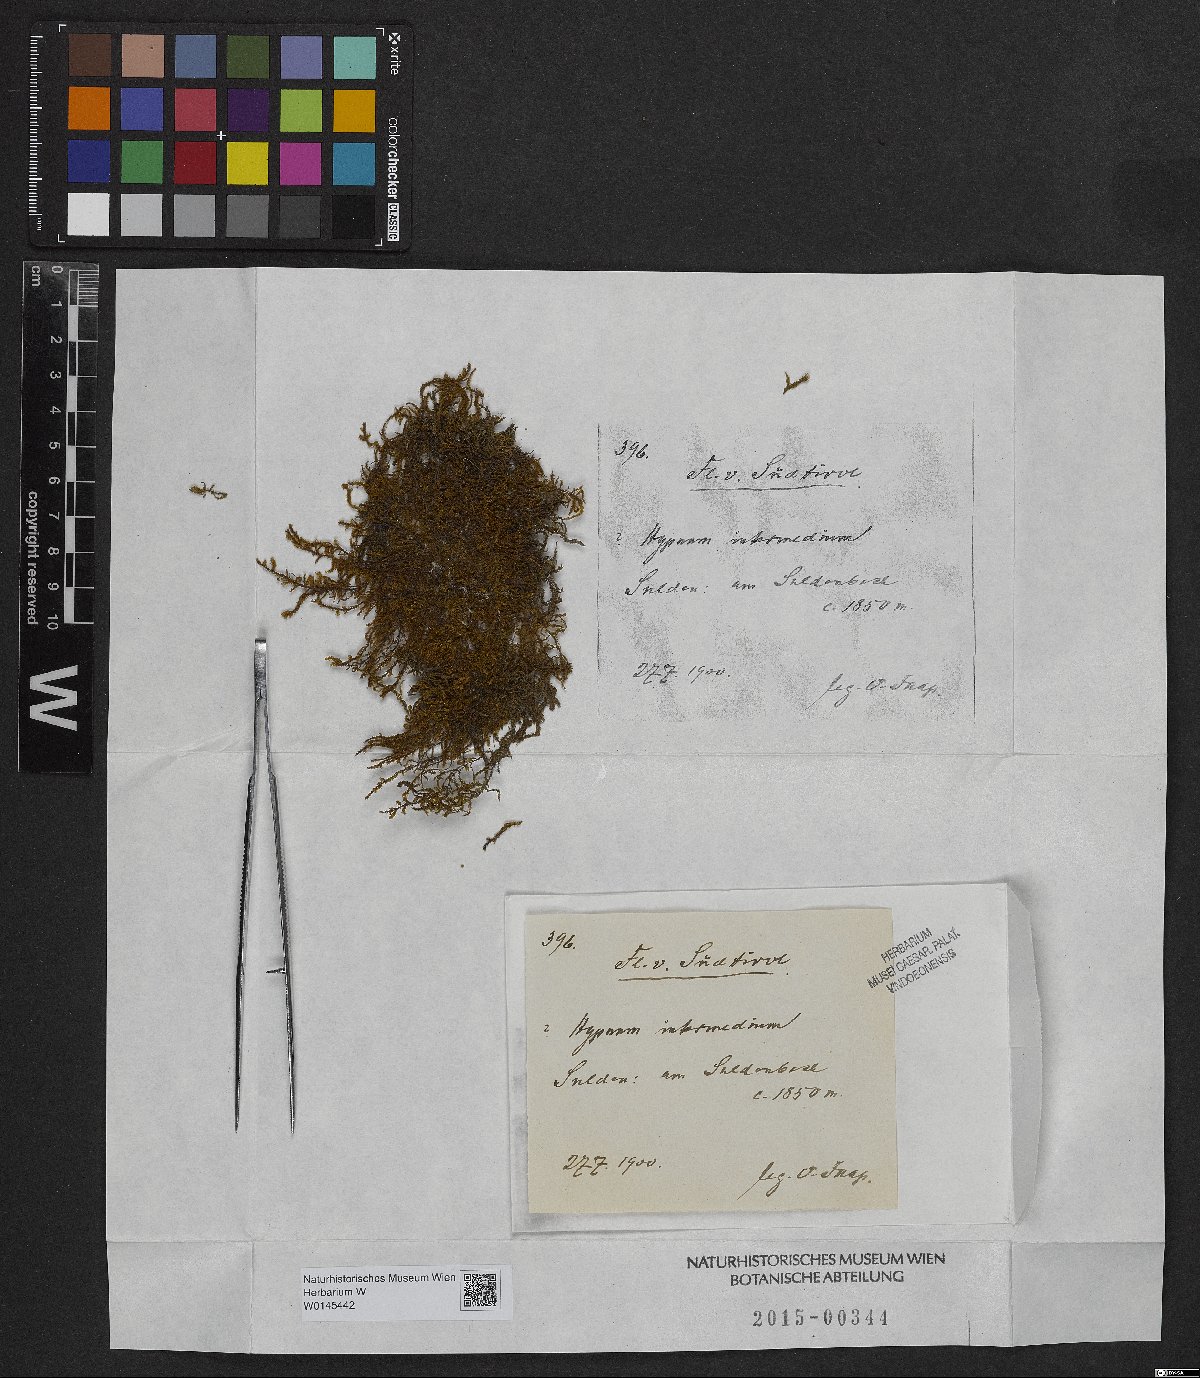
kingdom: Plantae
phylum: Bryophyta
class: Bryopsida
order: Hypnales
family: Thuidiaceae
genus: Thuidium
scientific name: Thuidium arzobispoae
